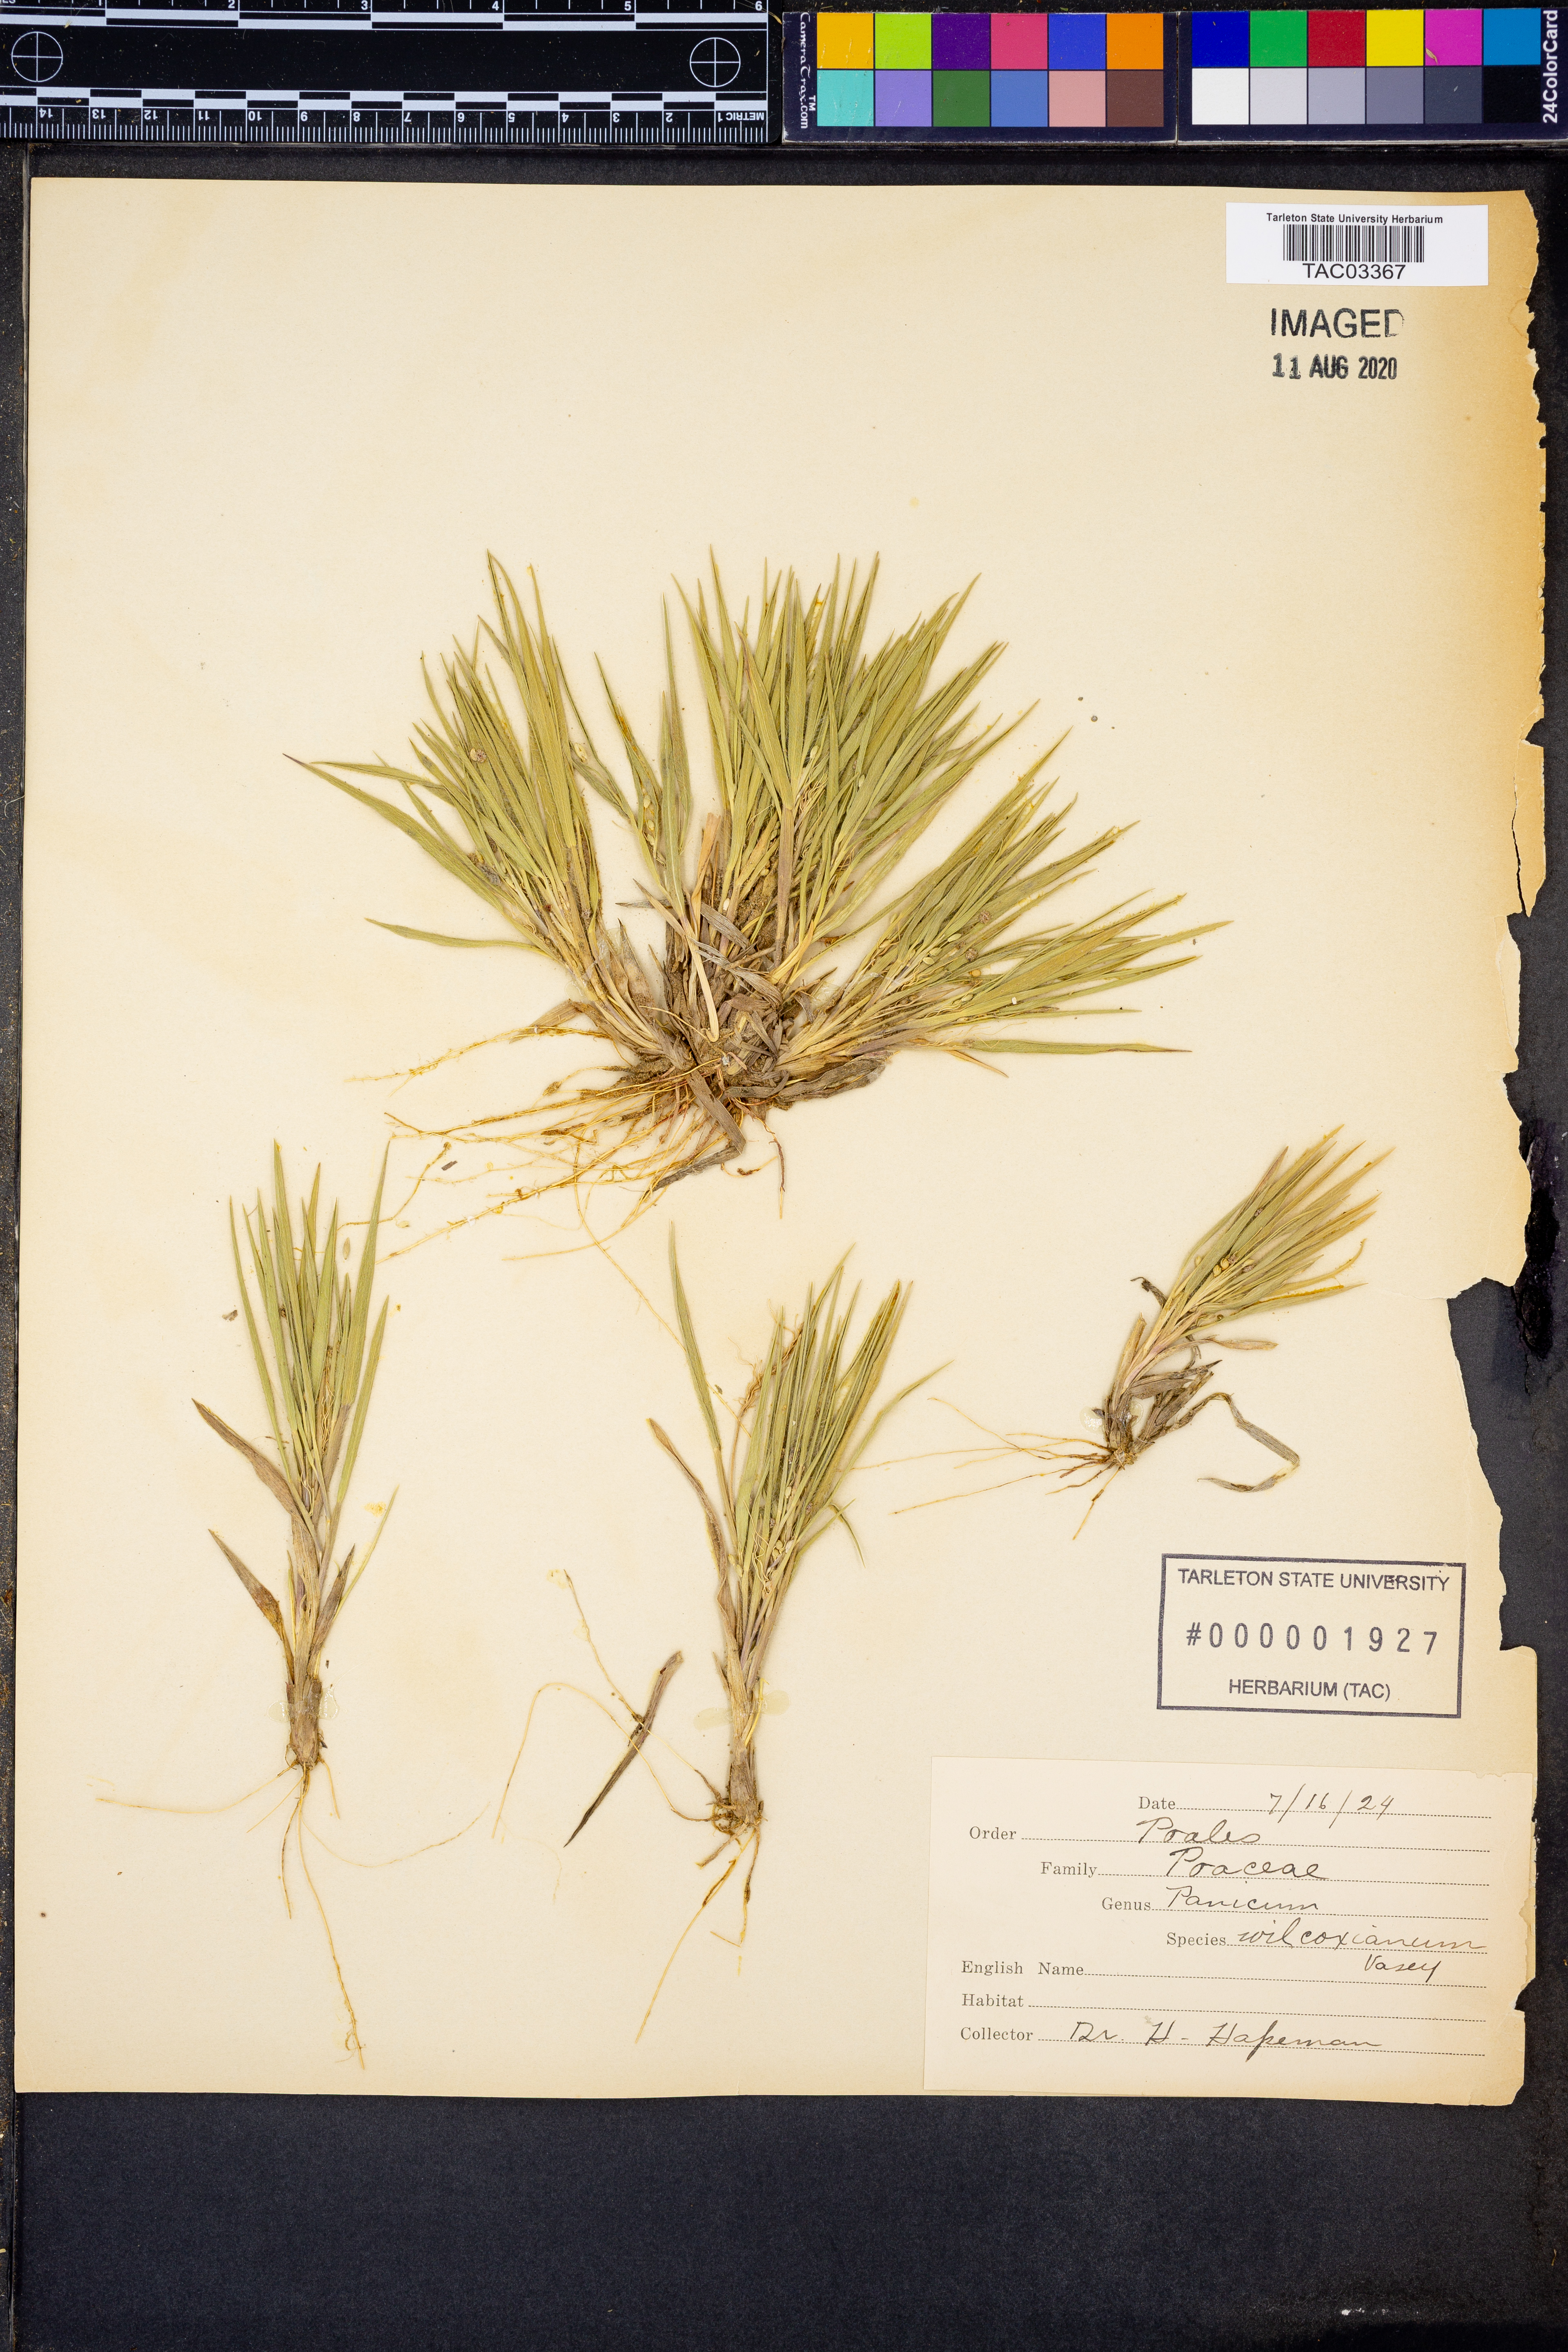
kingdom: Plantae
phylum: Tracheophyta
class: Liliopsida
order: Poales
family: Poaceae
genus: Dichanthelium
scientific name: Dichanthelium wilcoxianum
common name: Wilcox's panicgrass
